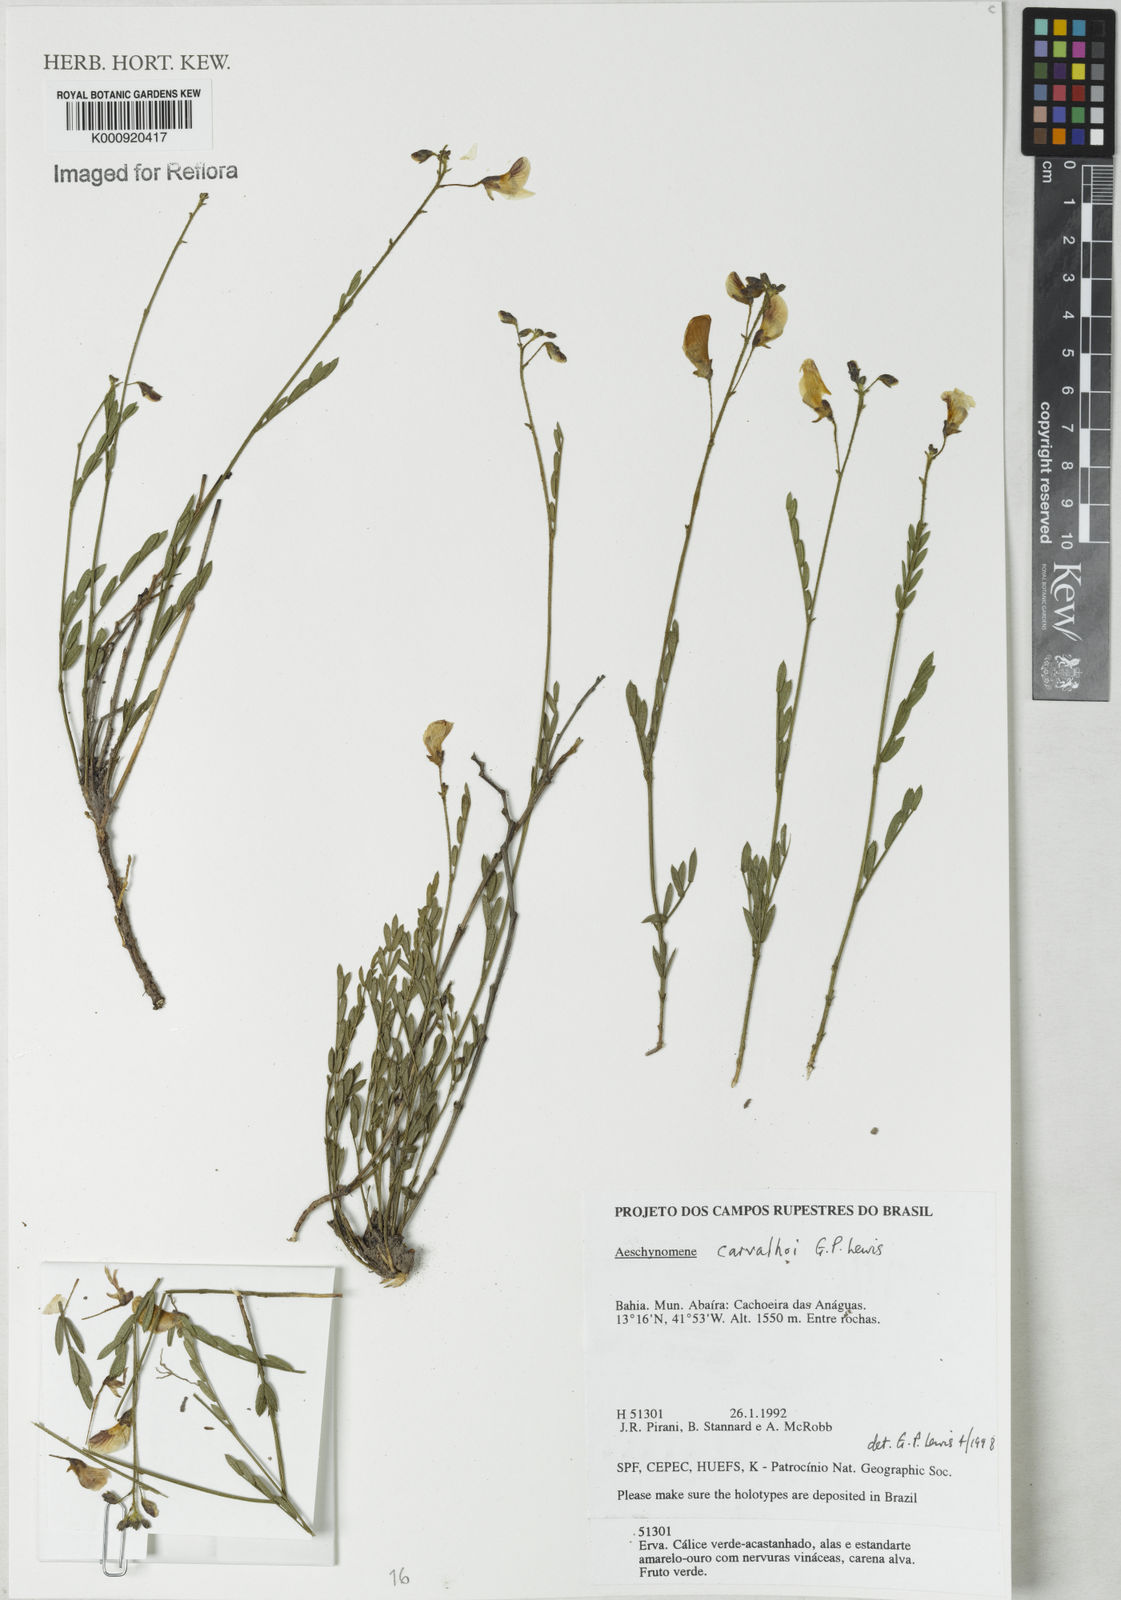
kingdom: Plantae
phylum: Tracheophyta
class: Magnoliopsida
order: Fabales
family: Fabaceae
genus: Ctenodon
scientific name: Ctenodon carvalhoi
